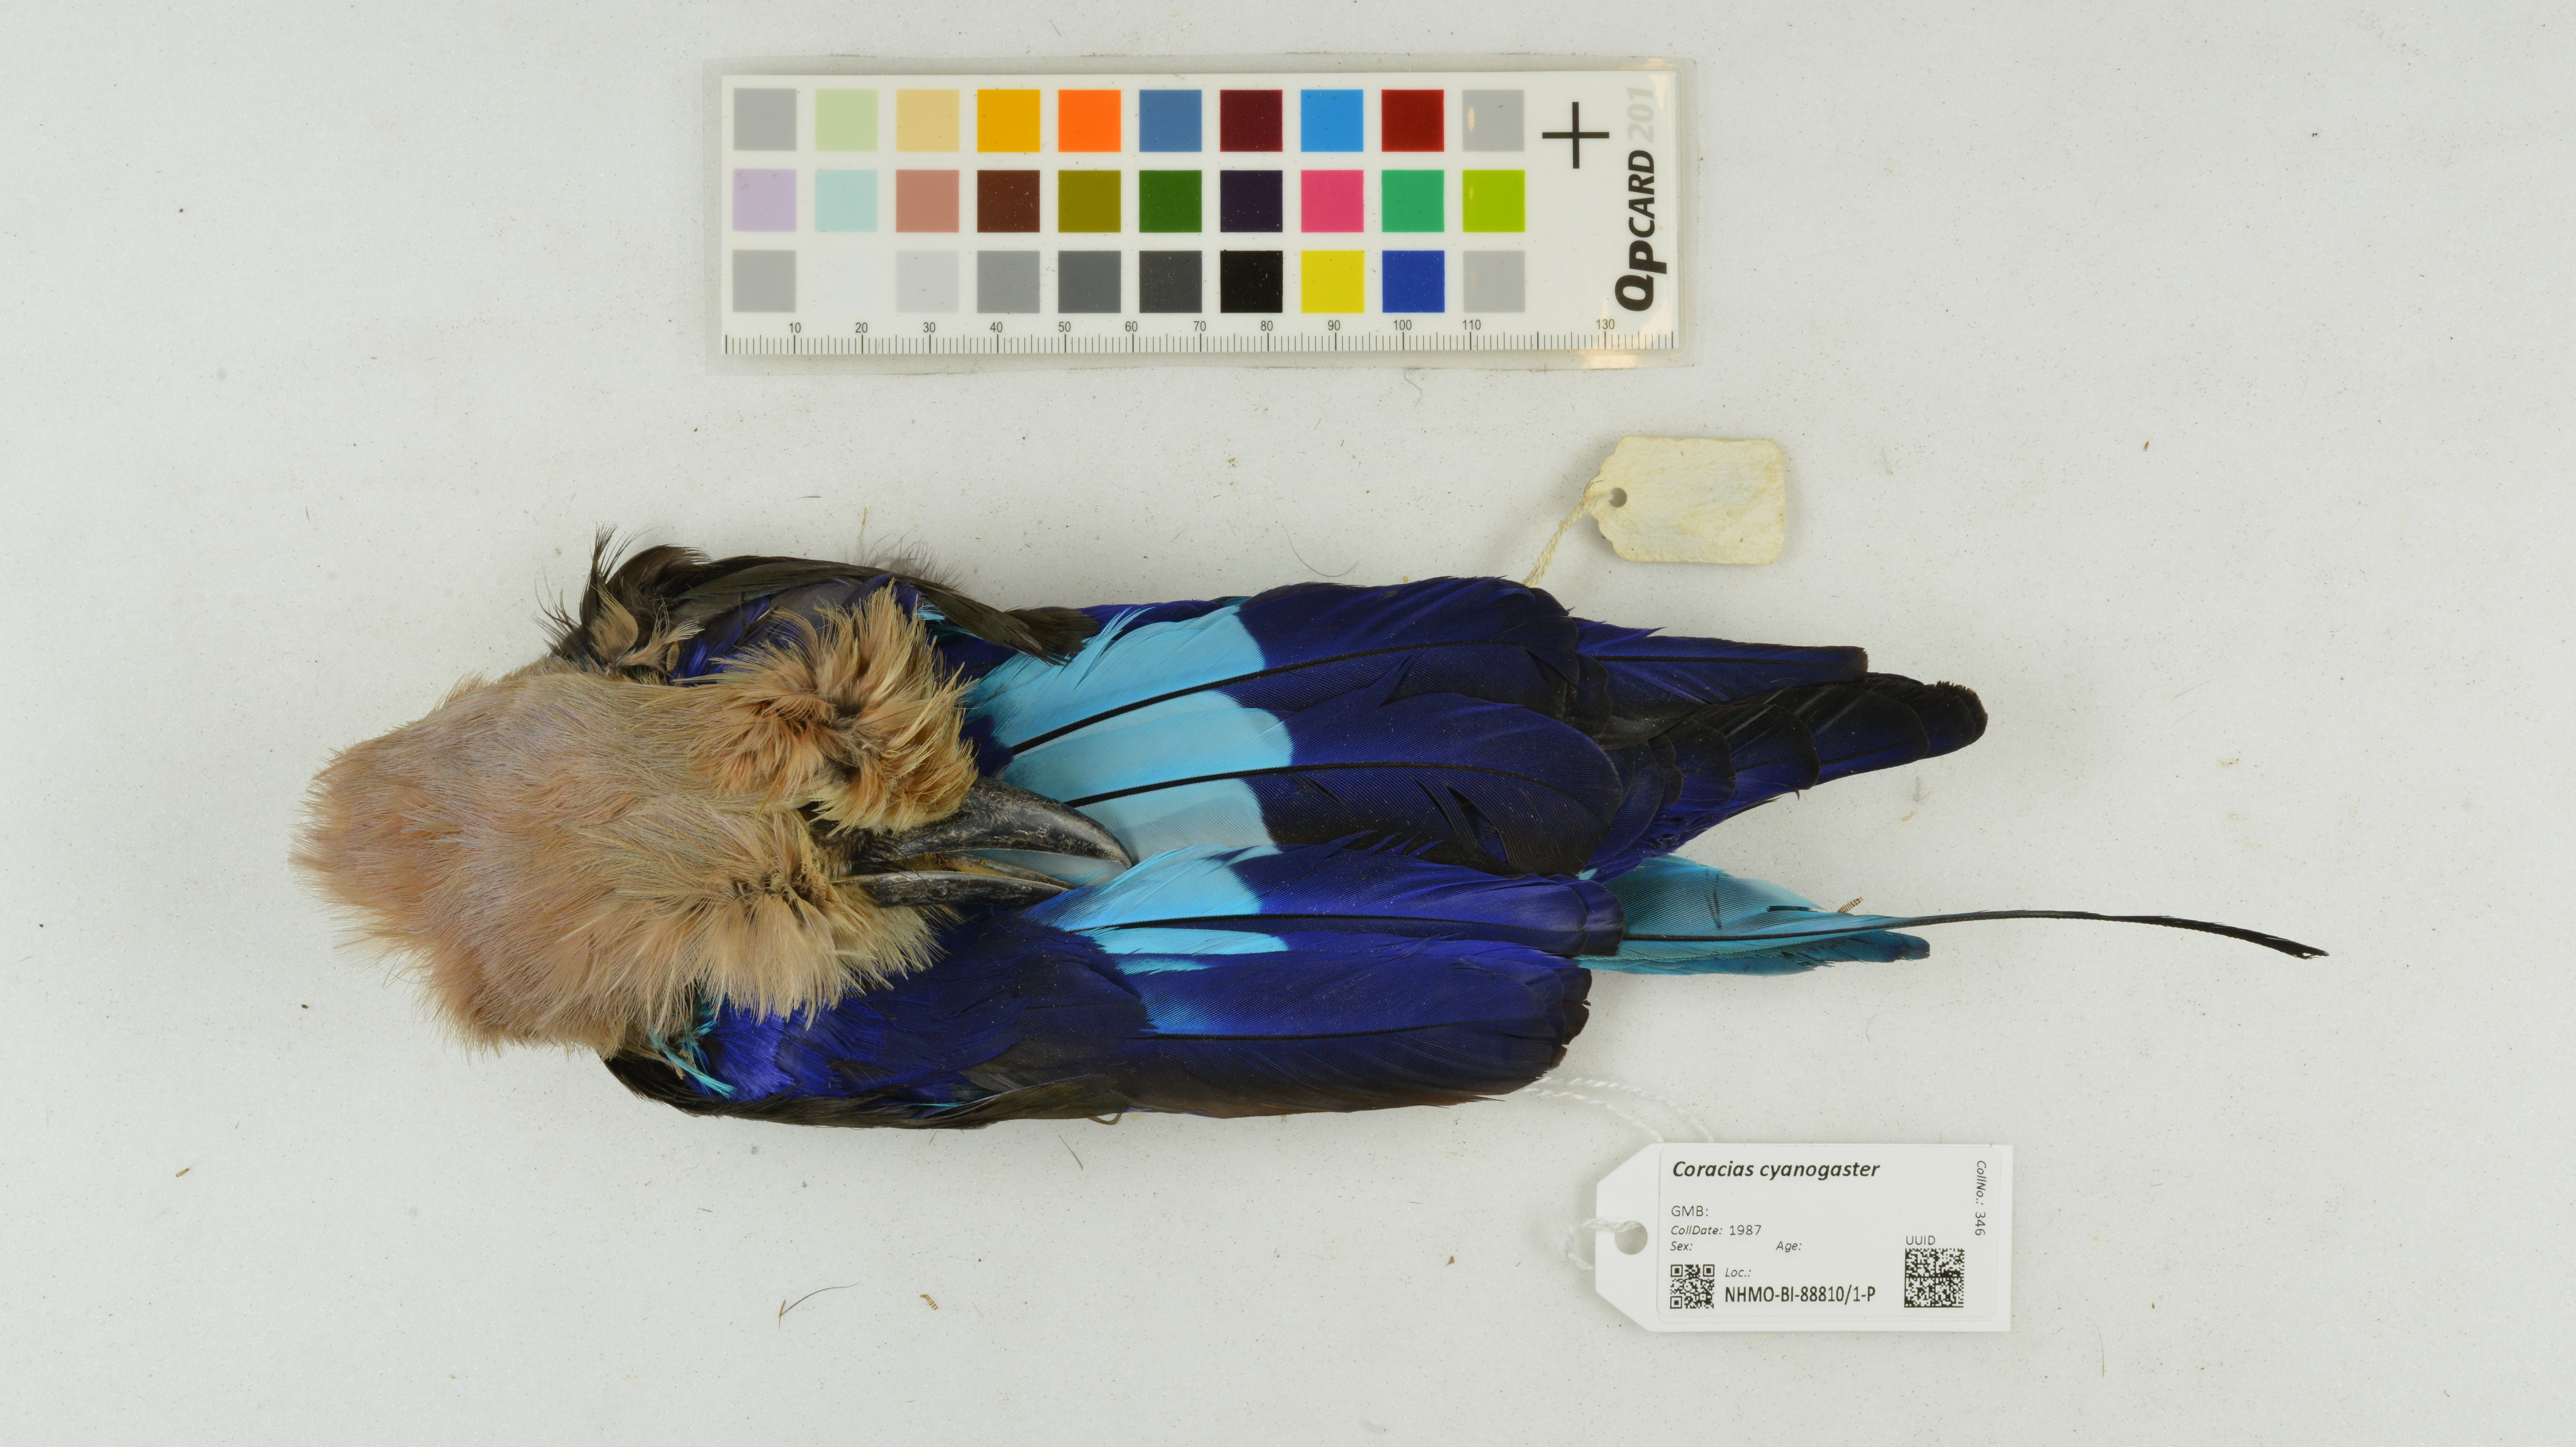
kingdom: Animalia
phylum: Chordata
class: Aves
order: Coraciiformes
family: Coraciidae
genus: Coracias
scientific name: Coracias cyanogaster
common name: Blue-bellied roller
